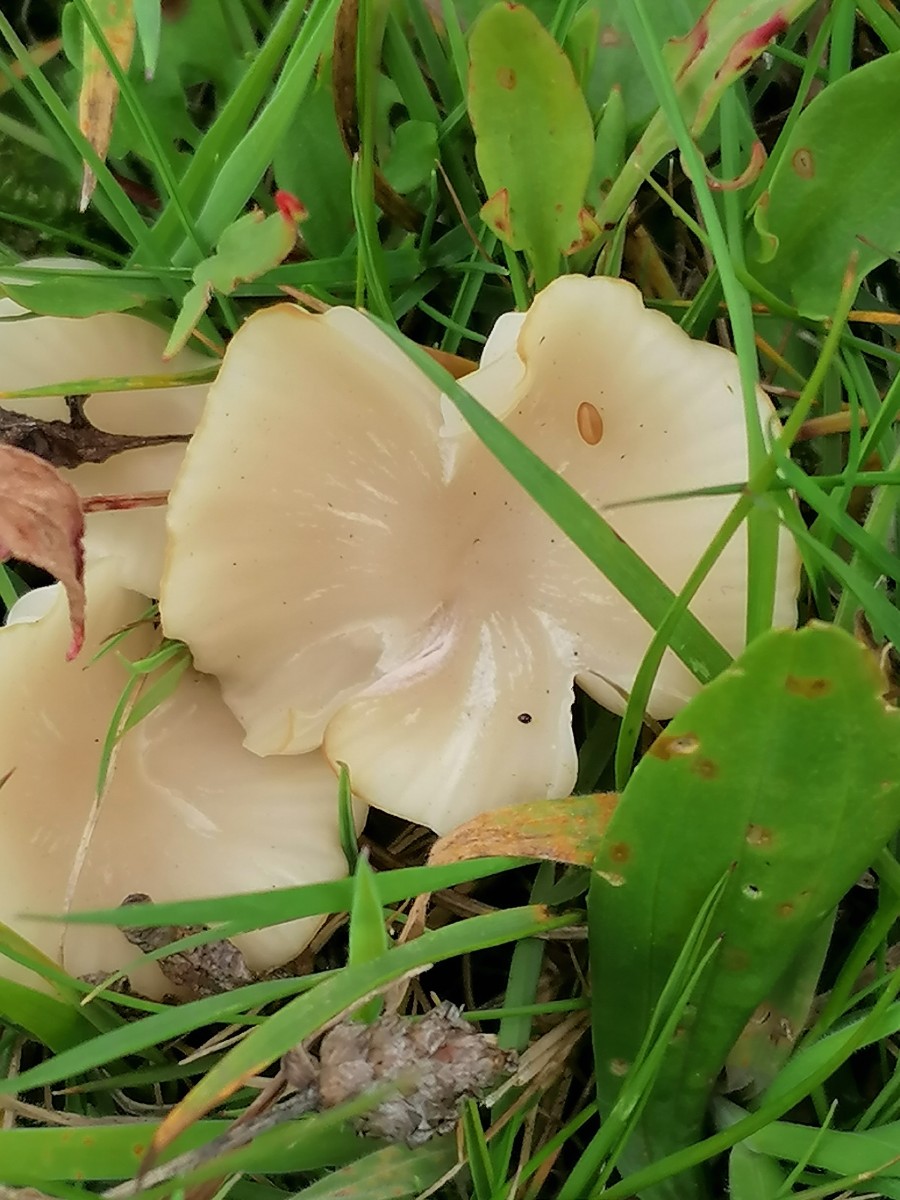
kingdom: Fungi
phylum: Basidiomycota
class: Agaricomycetes
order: Agaricales
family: Hygrophoraceae
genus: Cuphophyllus
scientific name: Cuphophyllus virgineus
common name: snehvid vokshat
